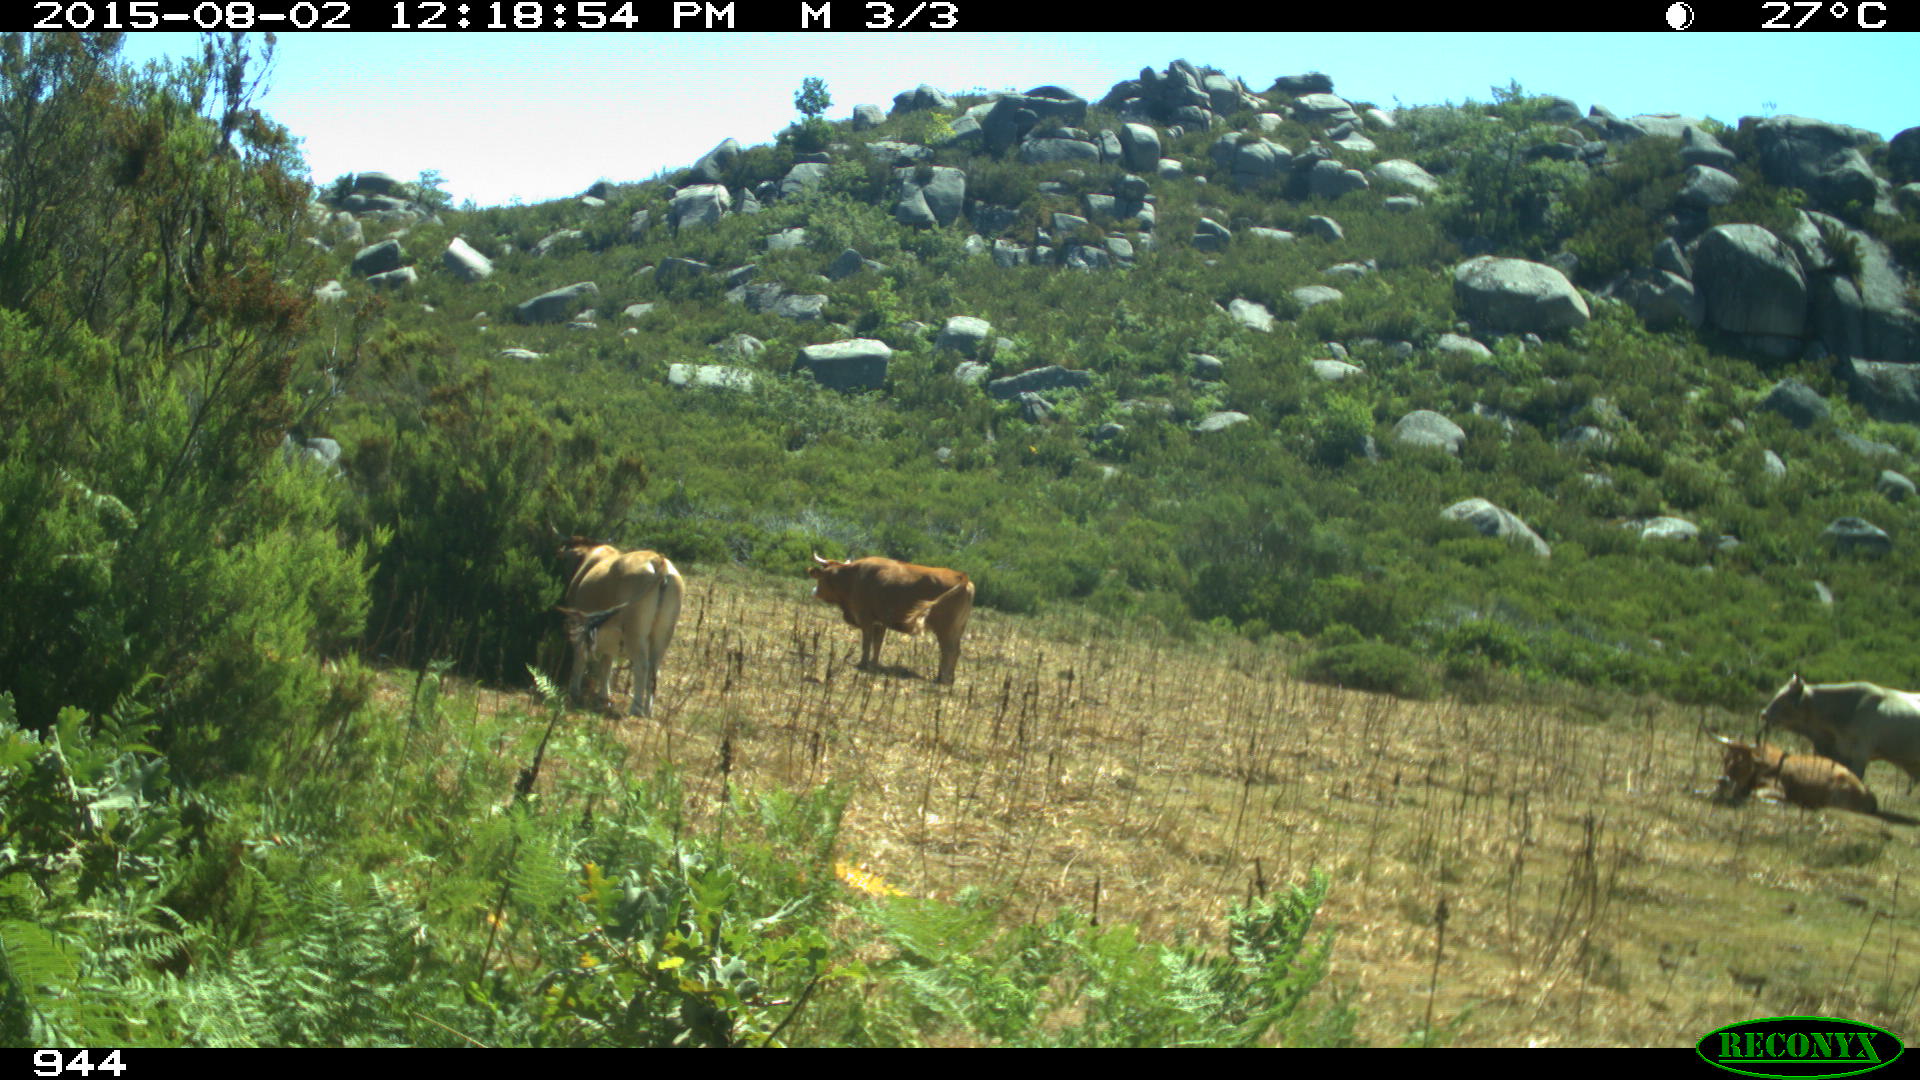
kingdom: Animalia
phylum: Chordata
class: Mammalia
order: Artiodactyla
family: Bovidae
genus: Bos
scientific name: Bos taurus
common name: Domesticated cattle
